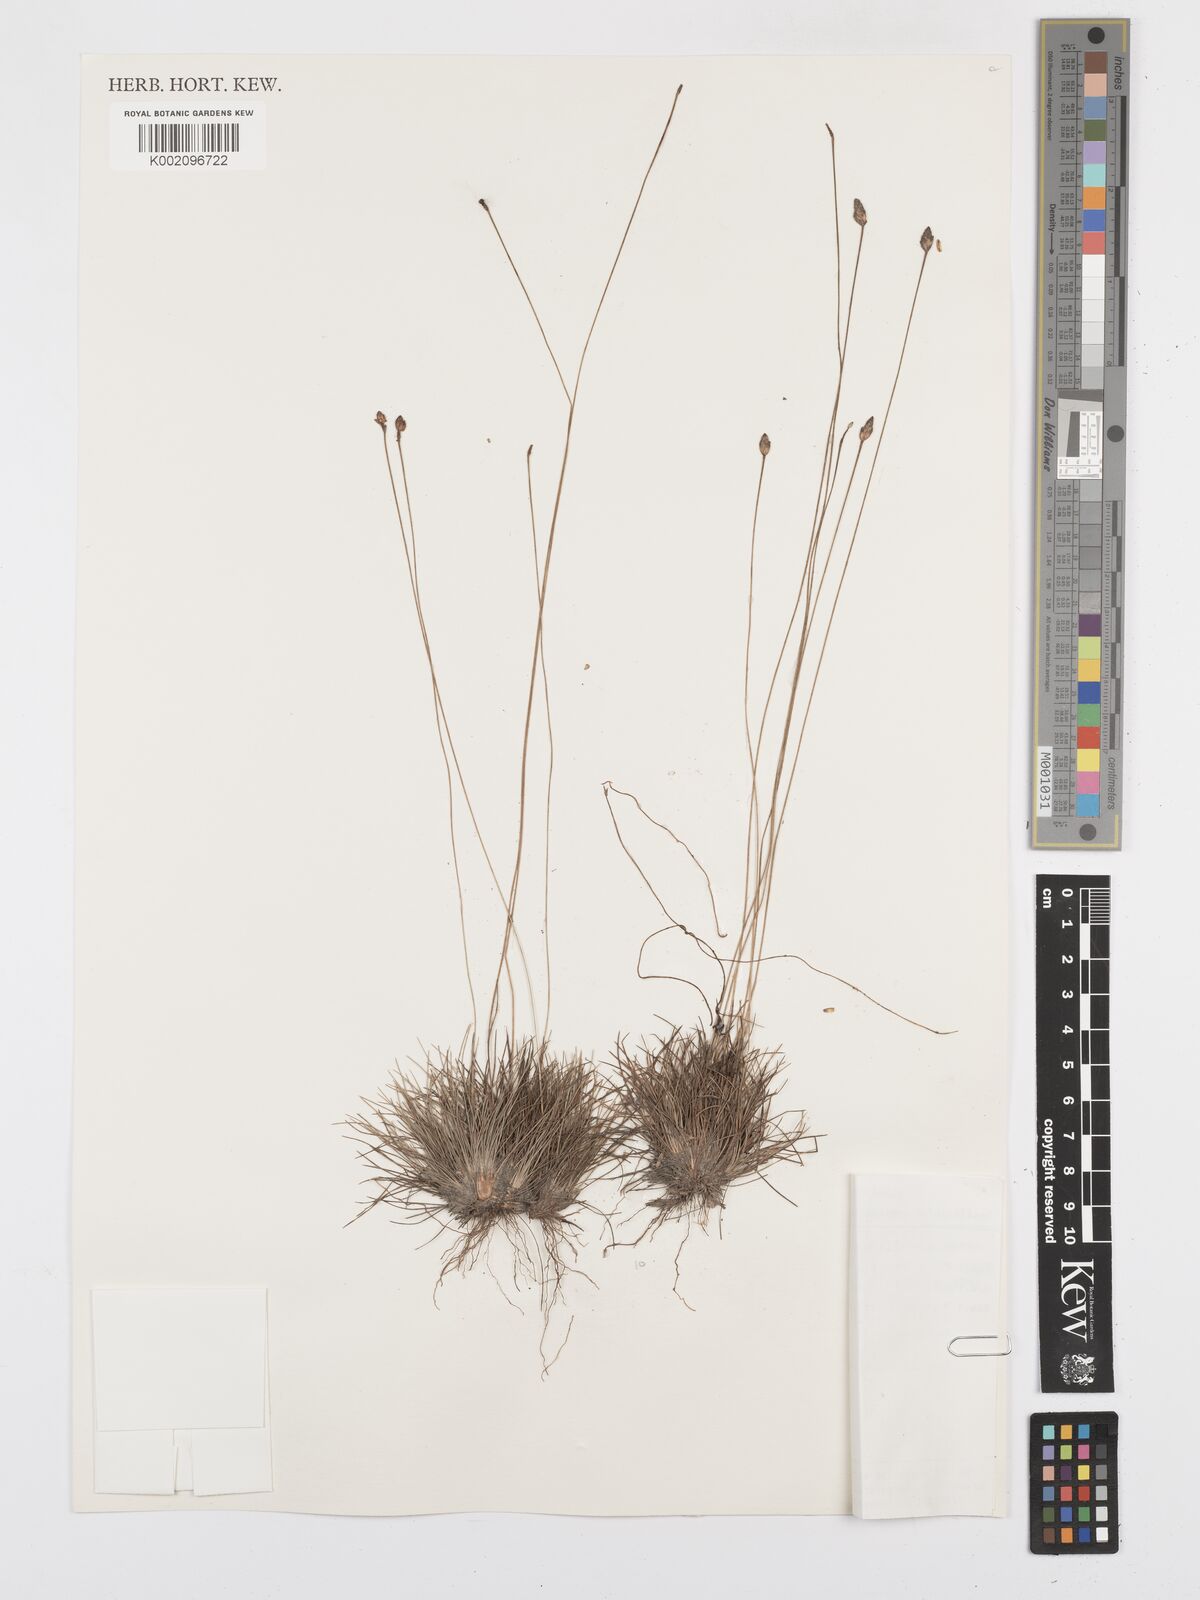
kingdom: Plantae
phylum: Tracheophyta
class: Liliopsida
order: Poales
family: Cyperaceae
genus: Bulbostylis
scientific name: Bulbostylis conifera
